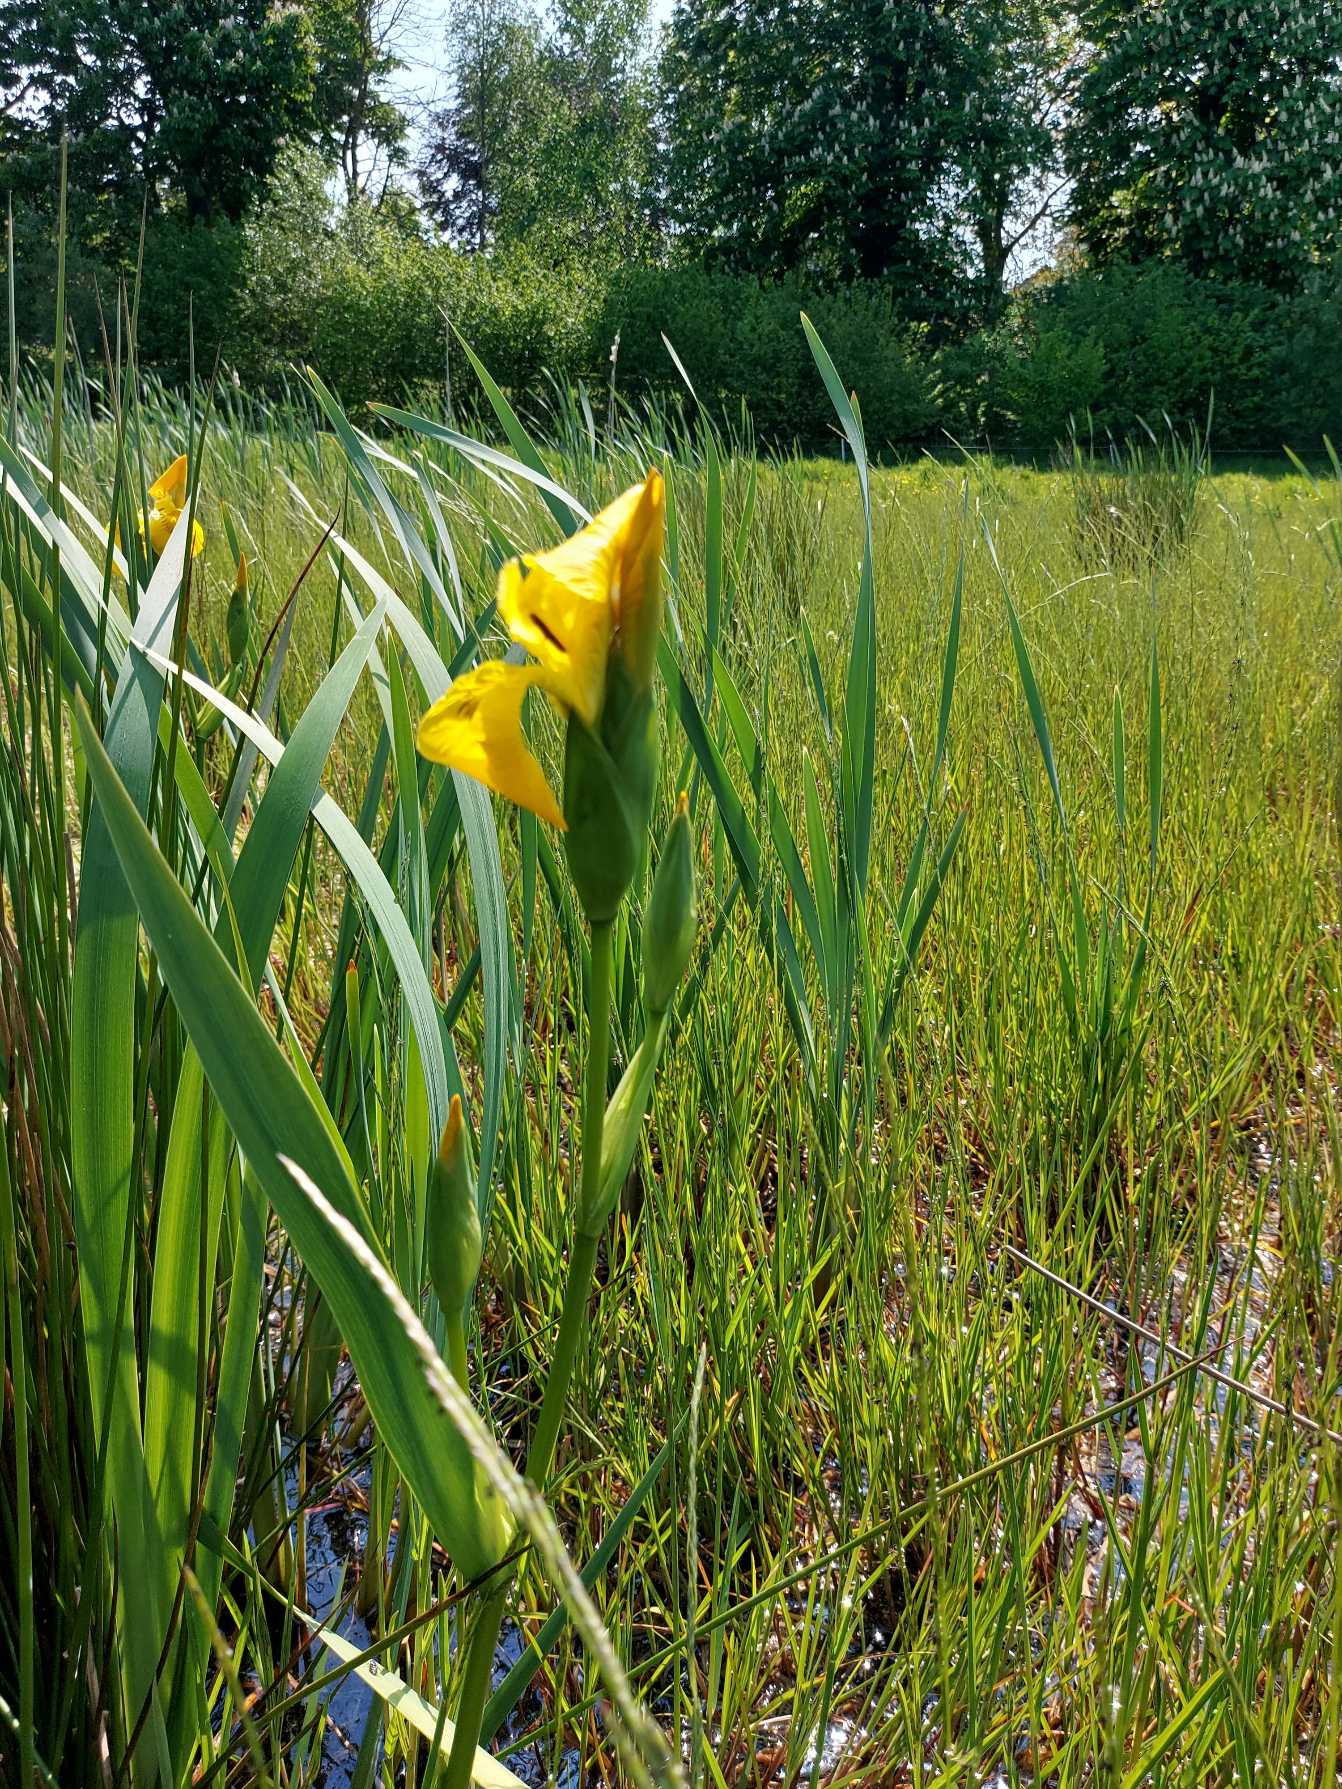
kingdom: Plantae
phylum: Tracheophyta
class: Liliopsida
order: Asparagales
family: Iridaceae
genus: Iris
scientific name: Iris pseudacorus
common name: Gul iris
